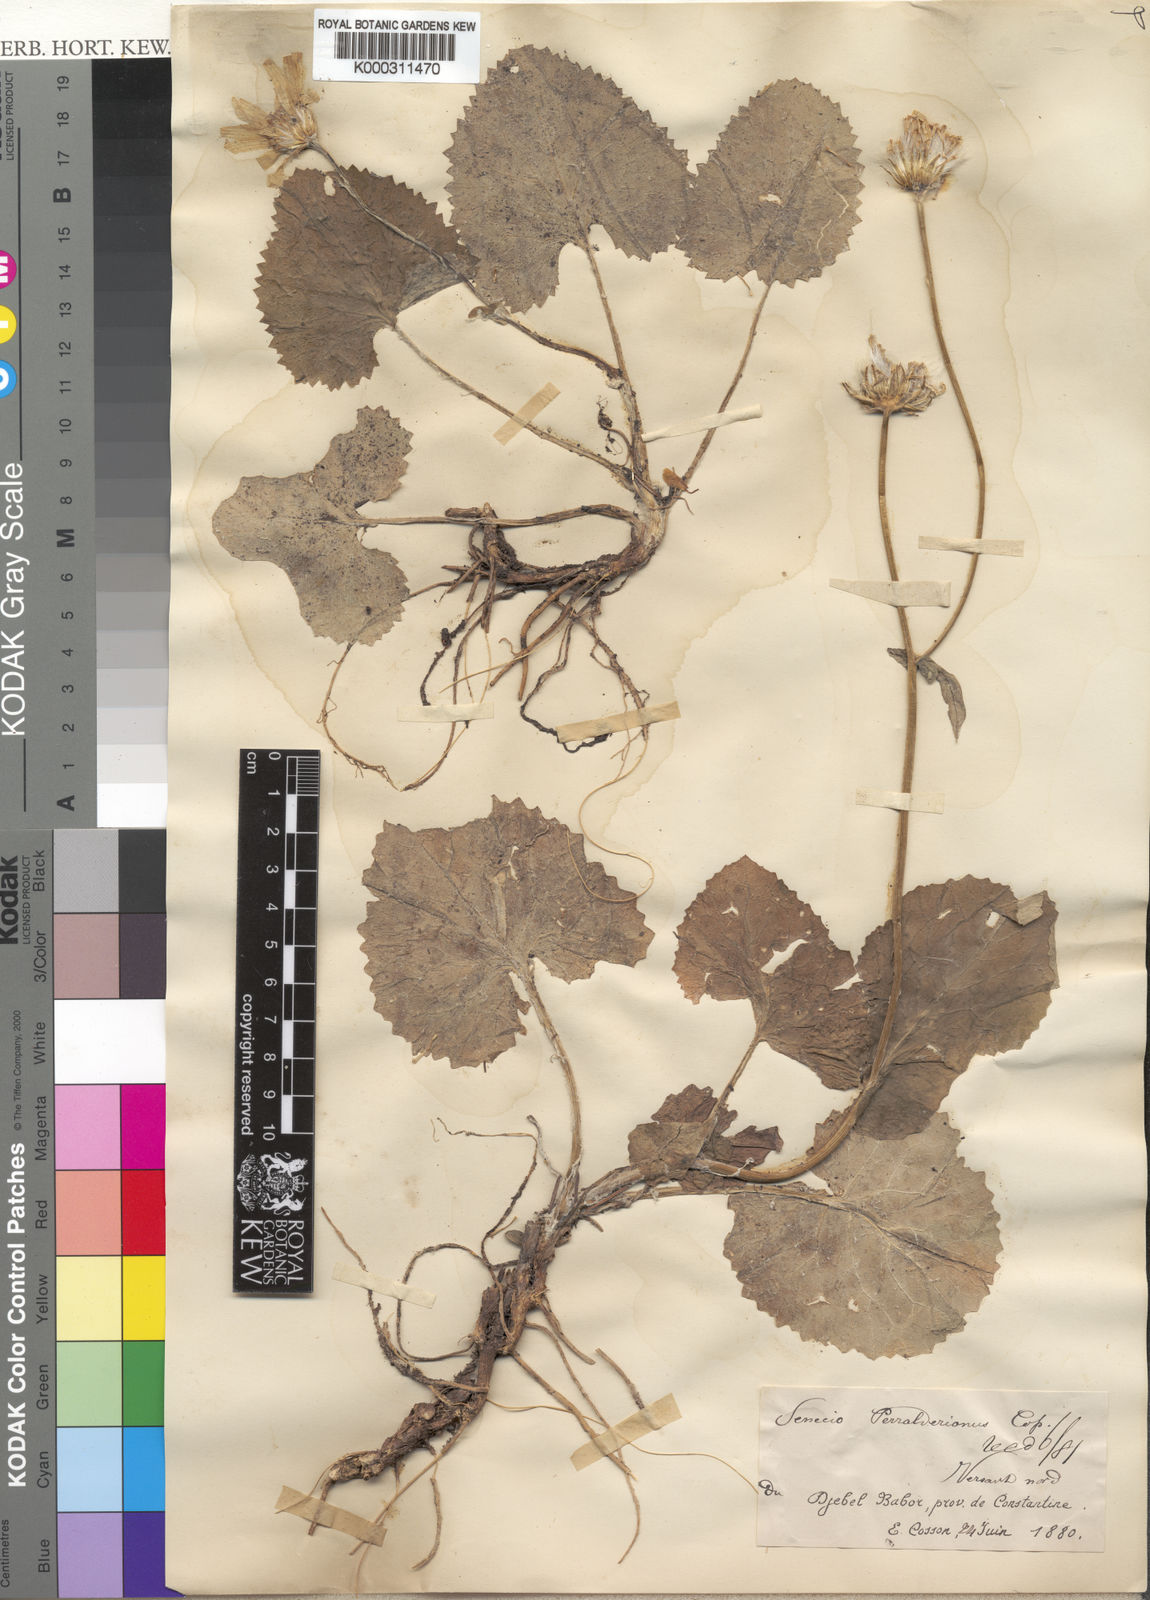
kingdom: Plantae
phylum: Tracheophyta
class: Magnoliopsida
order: Asterales
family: Asteraceae
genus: Senecio
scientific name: Senecio perralderianus
